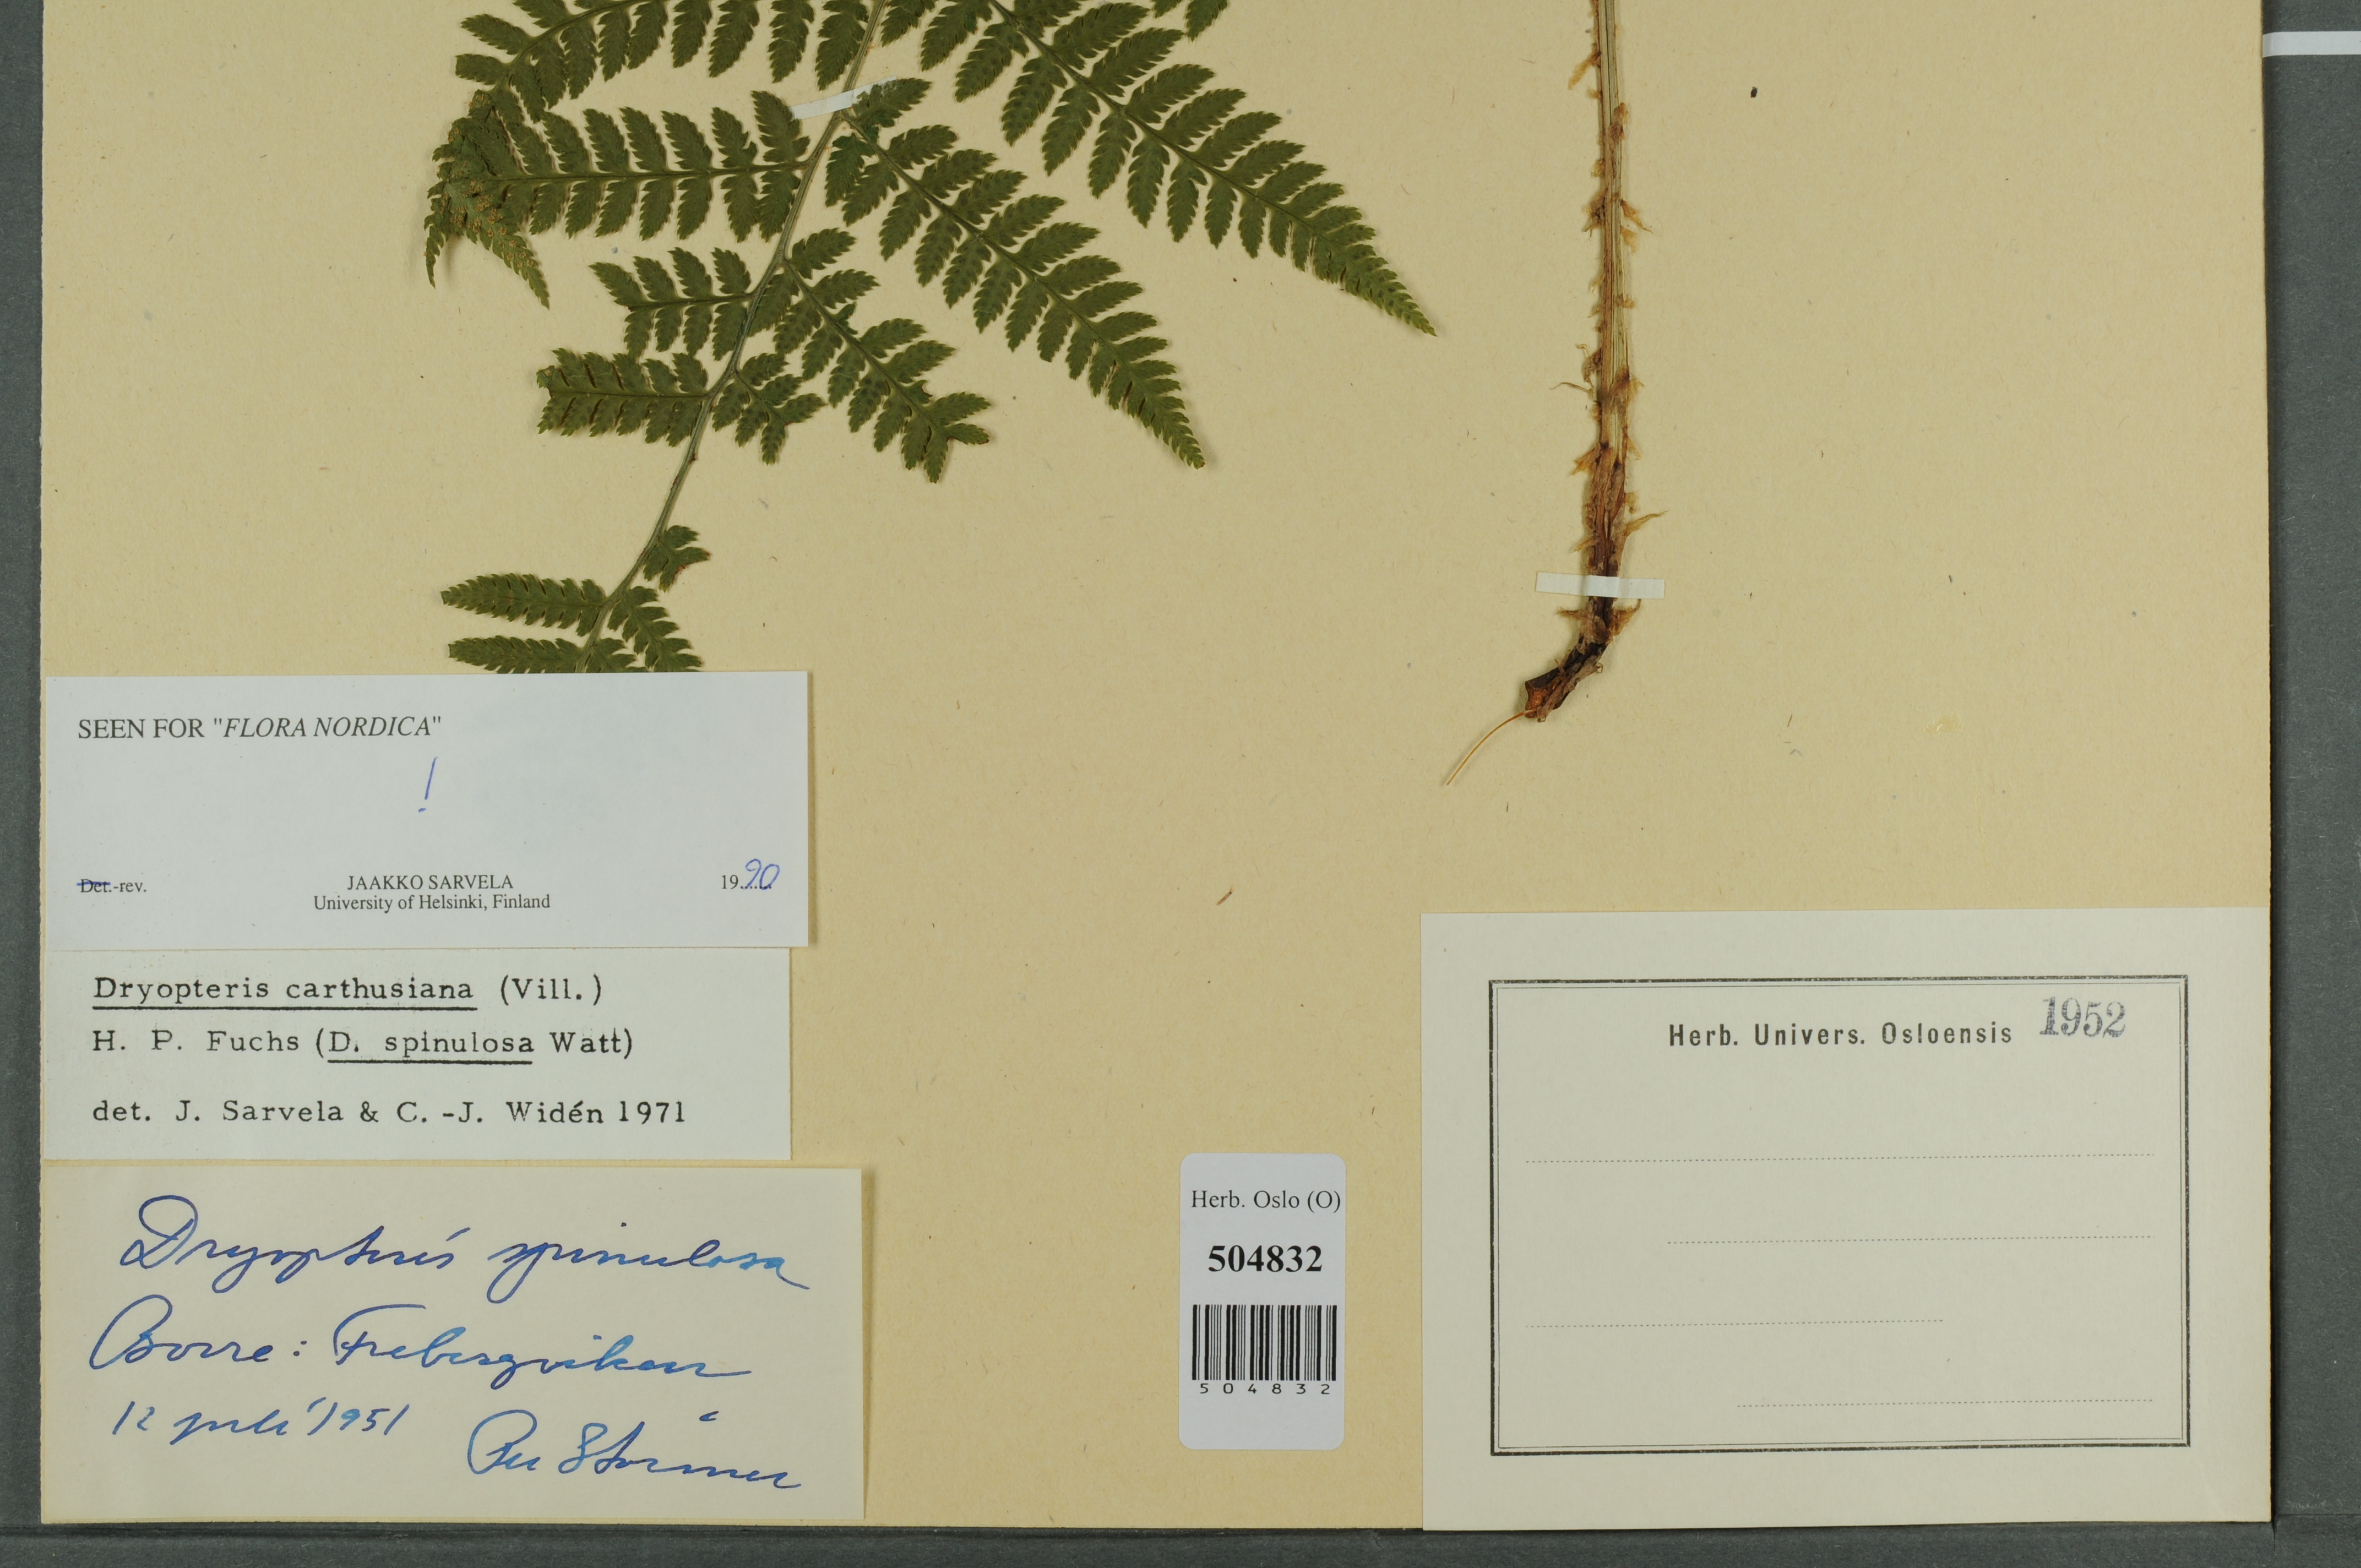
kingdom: Plantae
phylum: Tracheophyta
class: Polypodiopsida
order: Polypodiales
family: Dryopteridaceae
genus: Dryopteris
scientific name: Dryopteris carthusiana
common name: Narrow buckler-fern
